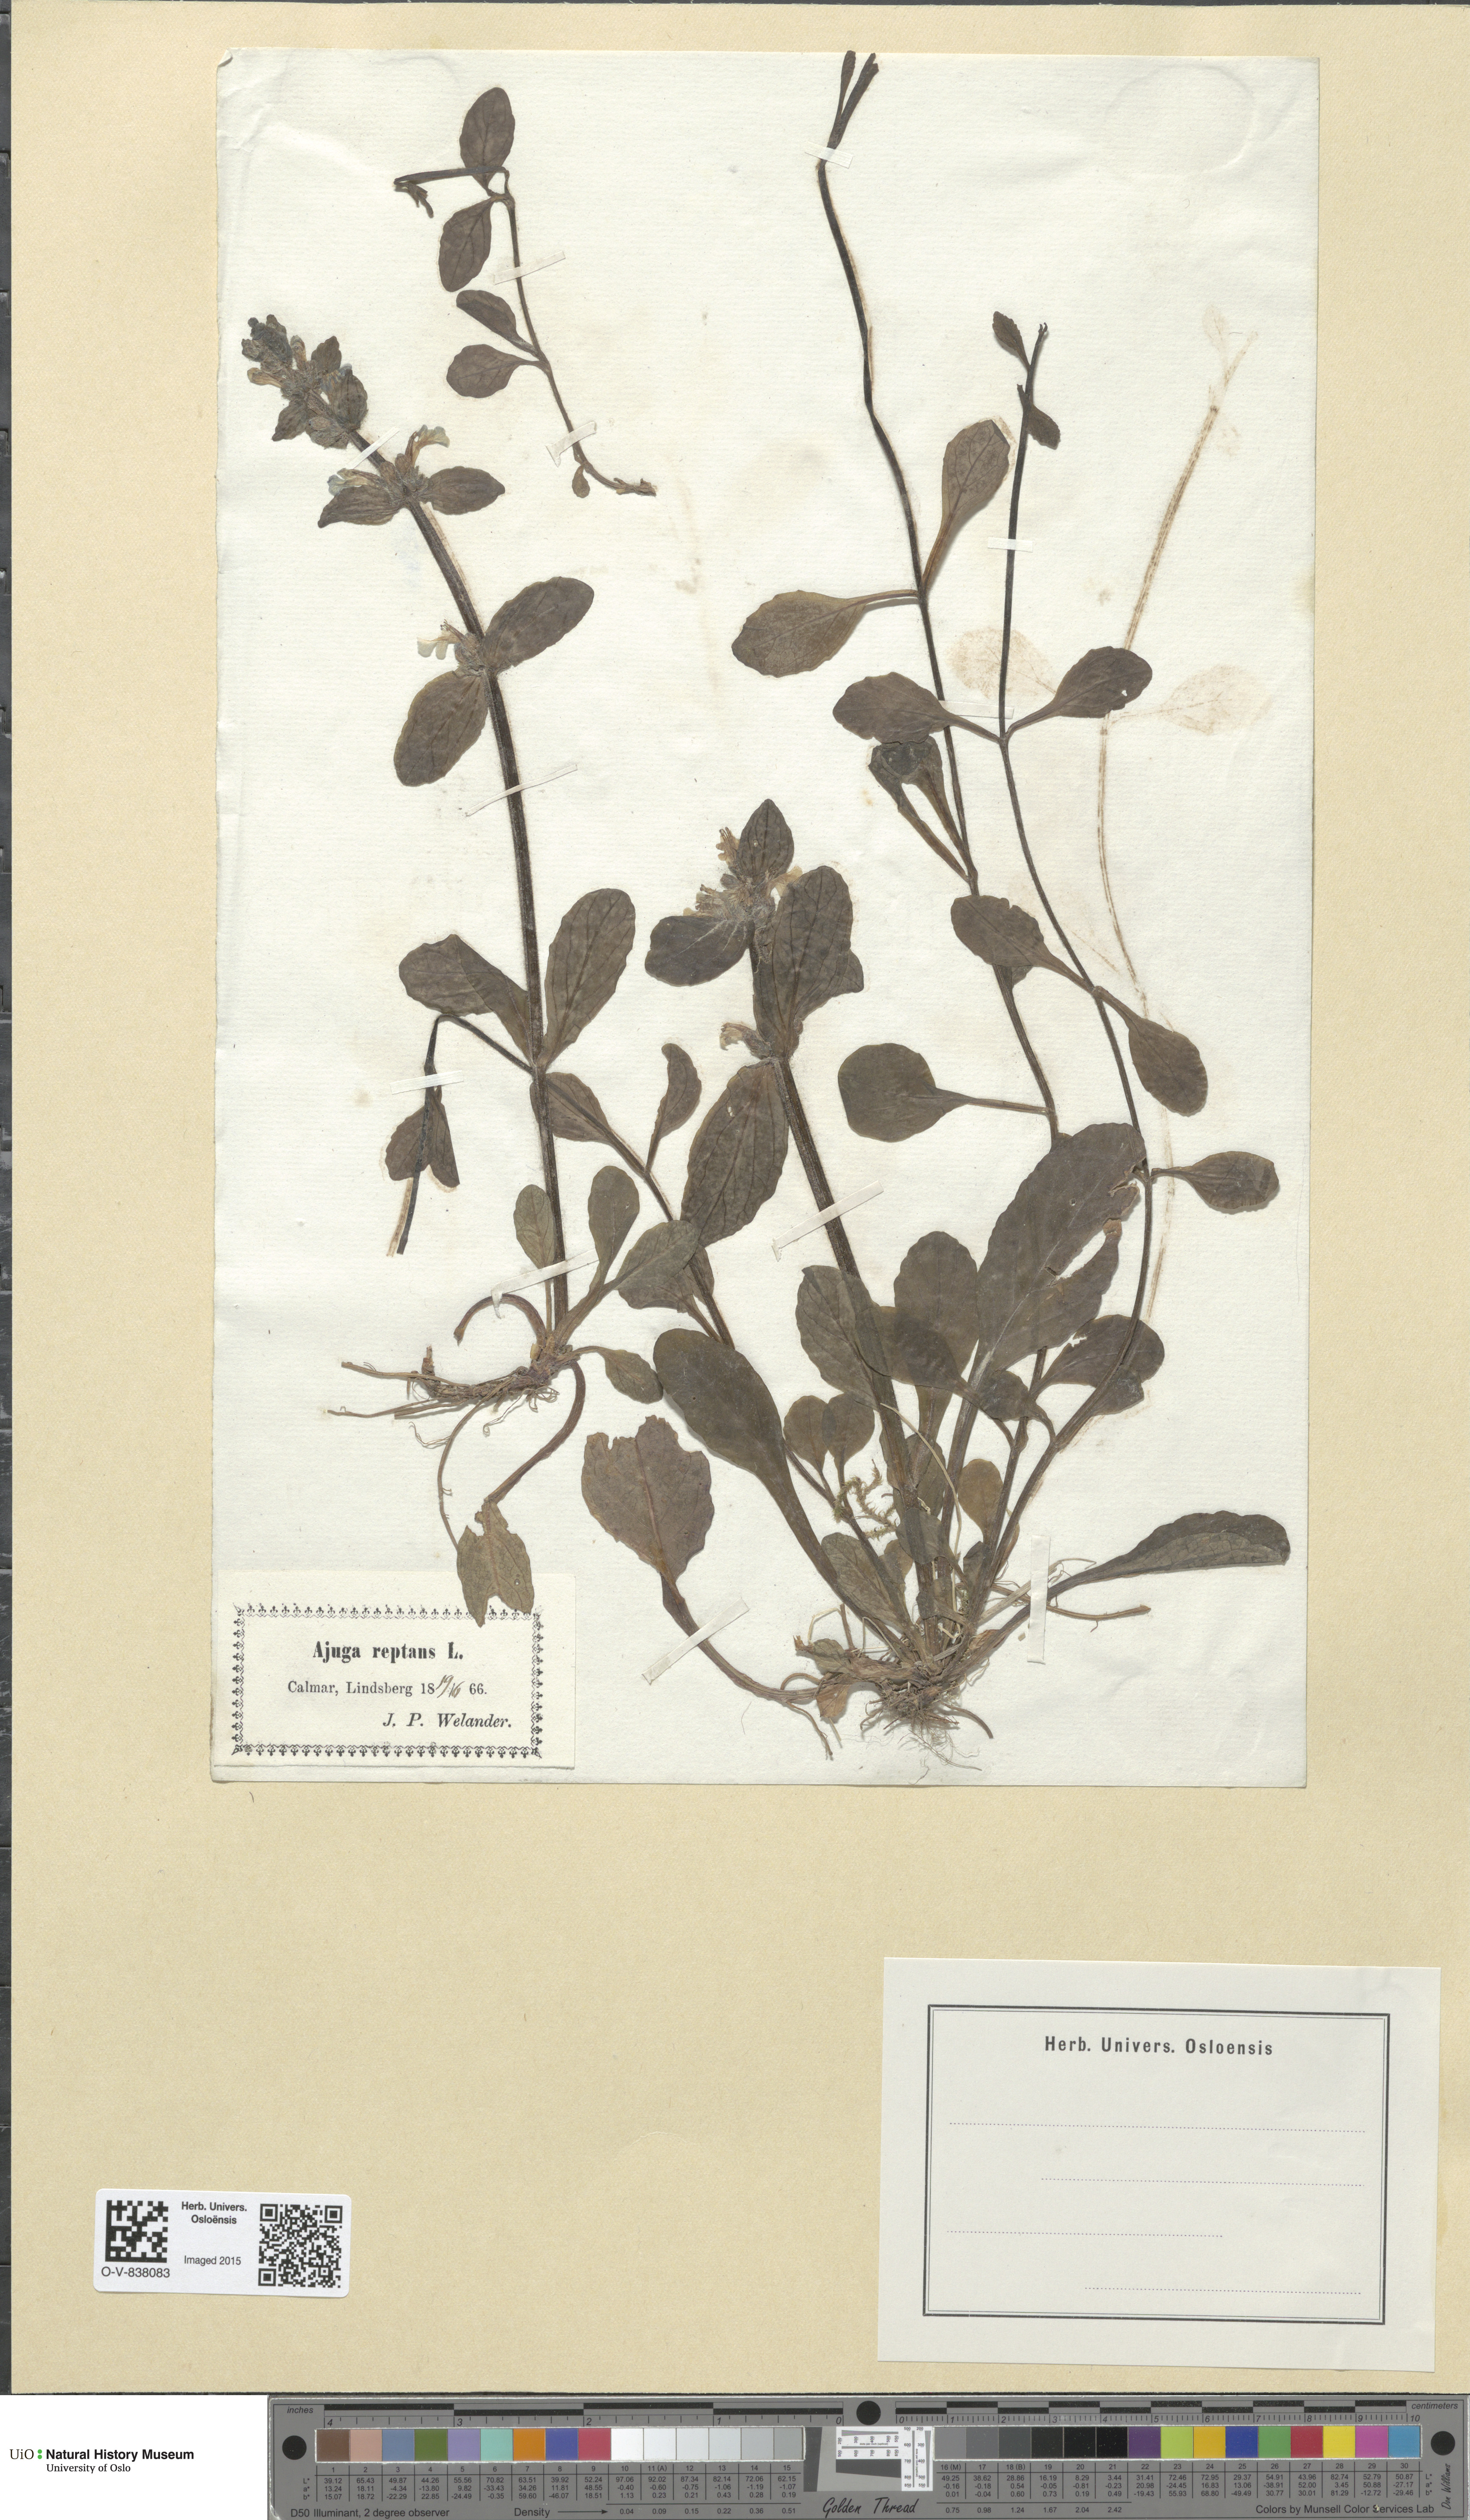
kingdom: Plantae
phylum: Tracheophyta
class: Magnoliopsida
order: Lamiales
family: Lamiaceae
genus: Ajuga
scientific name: Ajuga reptans
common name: Bugle
